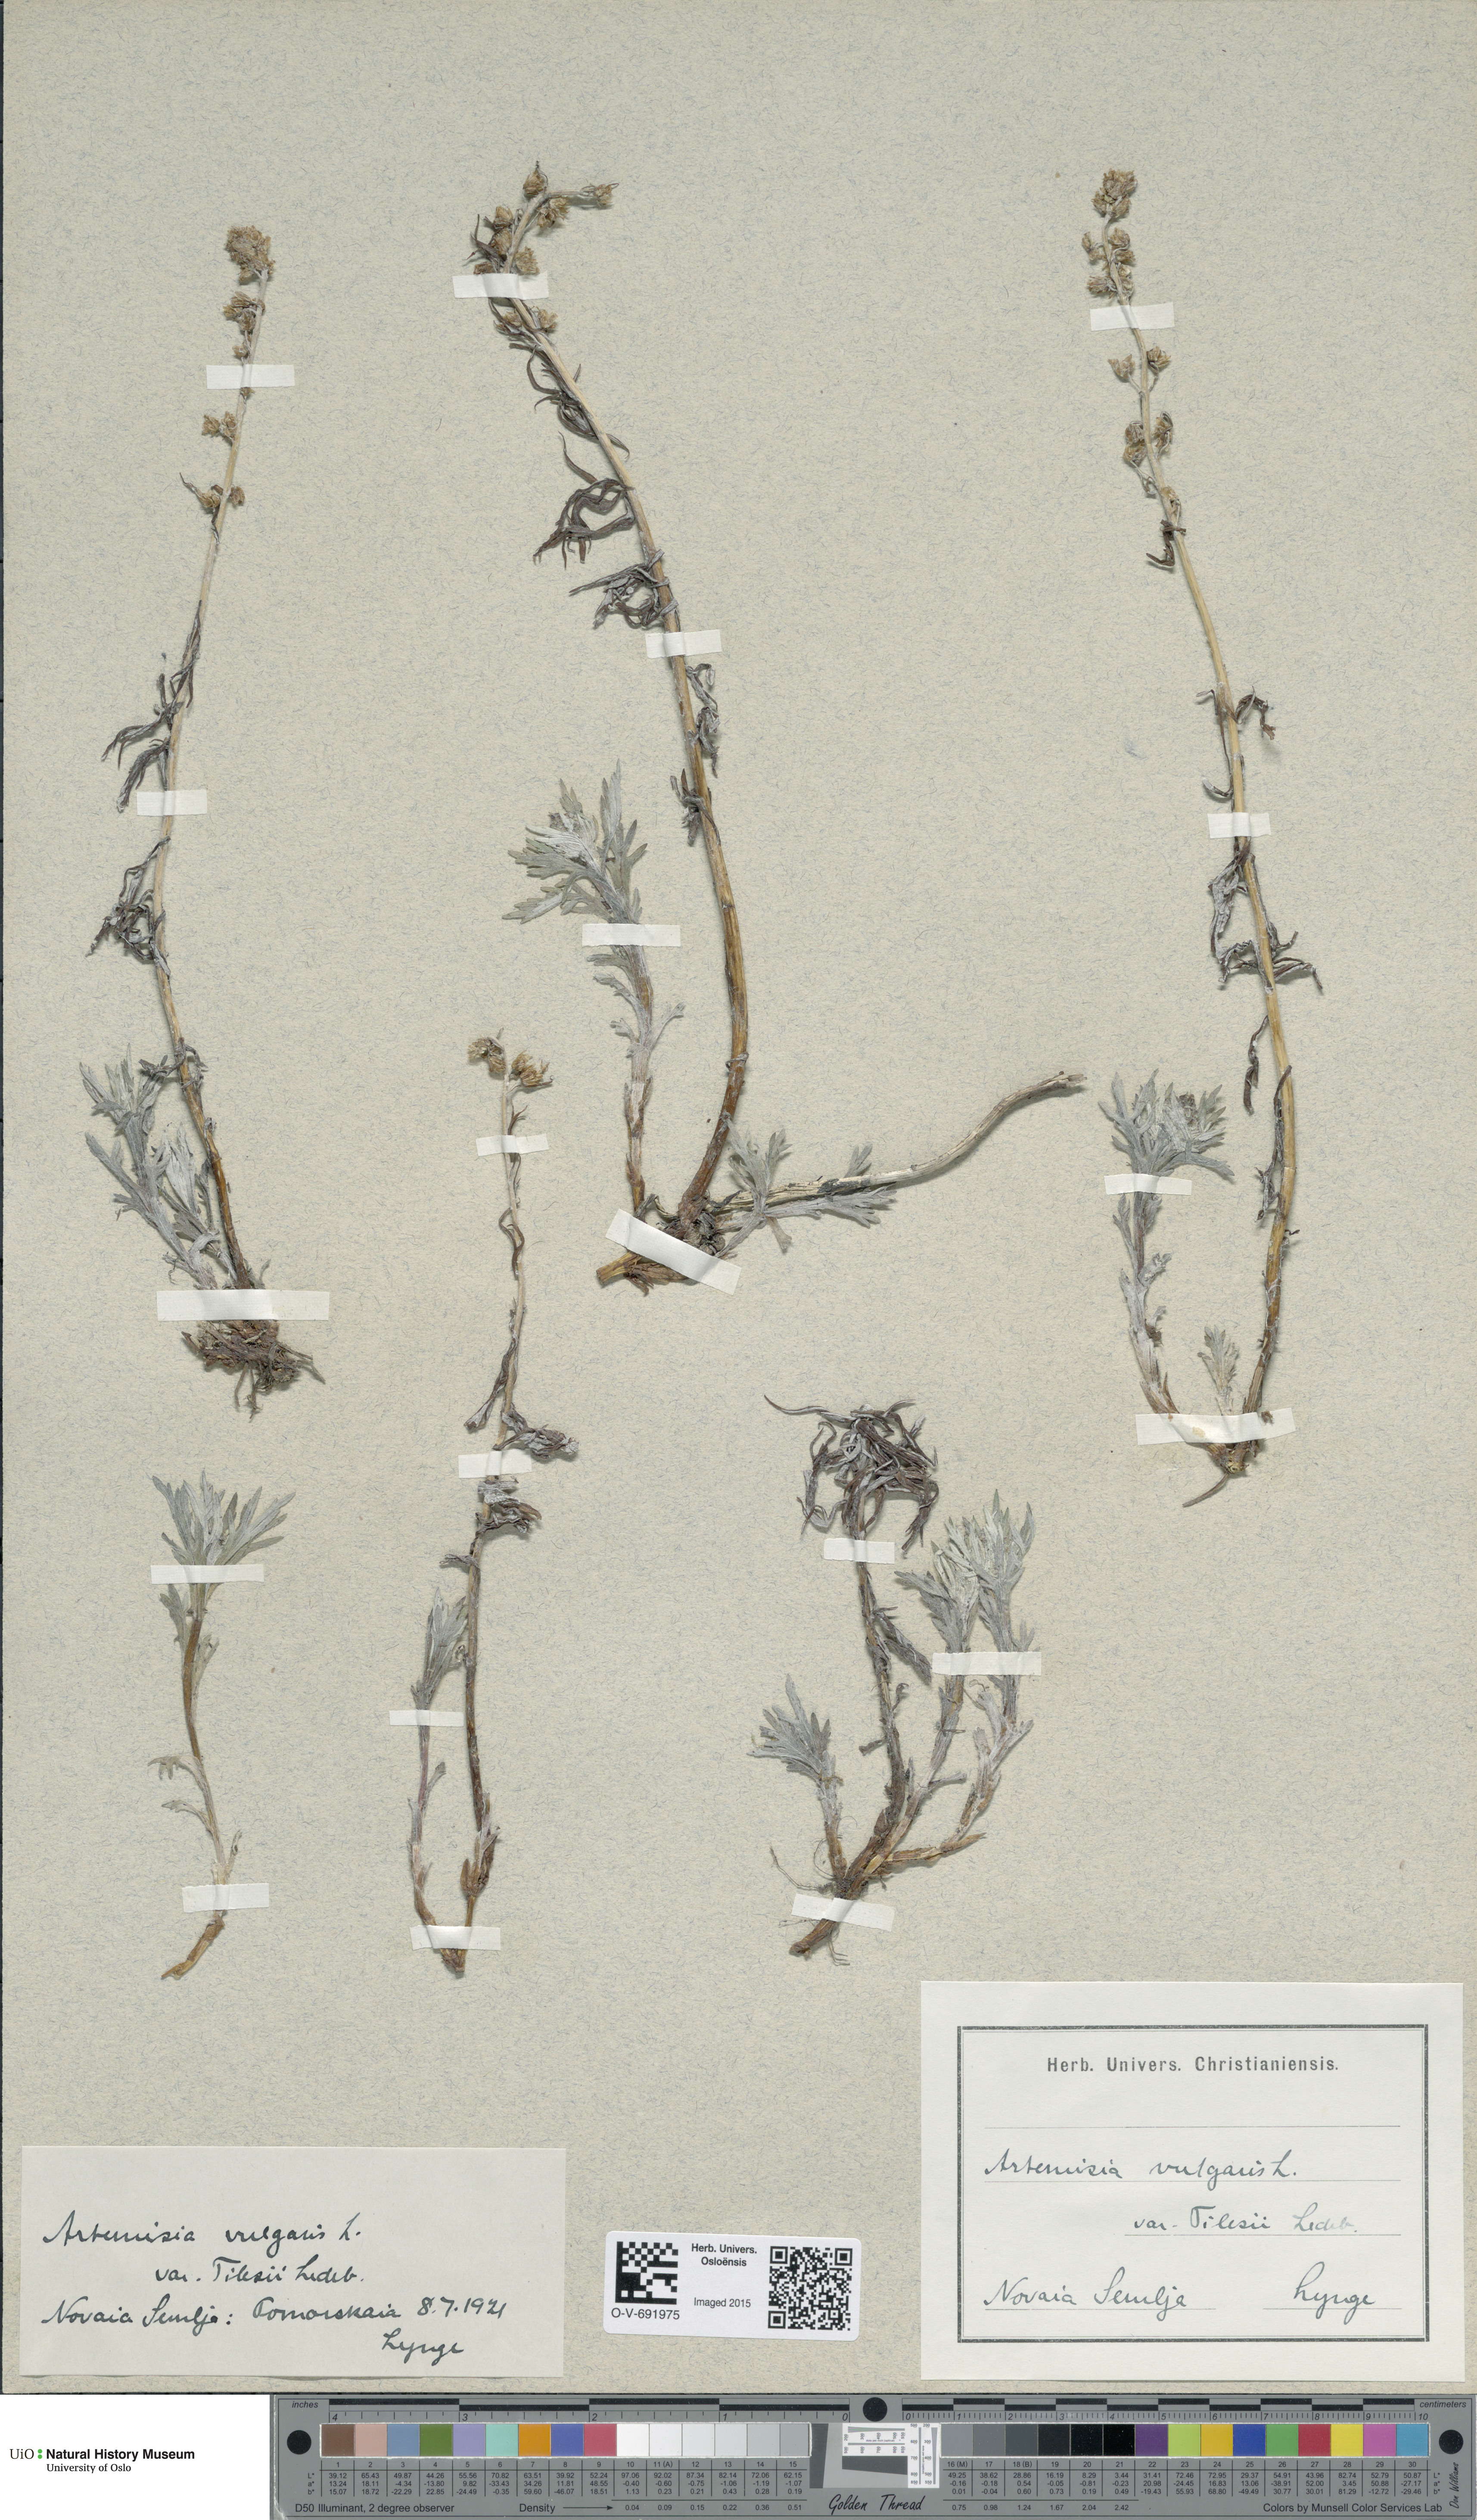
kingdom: Plantae
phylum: Tracheophyta
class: Magnoliopsida
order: Asterales
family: Asteraceae
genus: Artemisia
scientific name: Artemisia tilesii
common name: Aleutian mugwort
